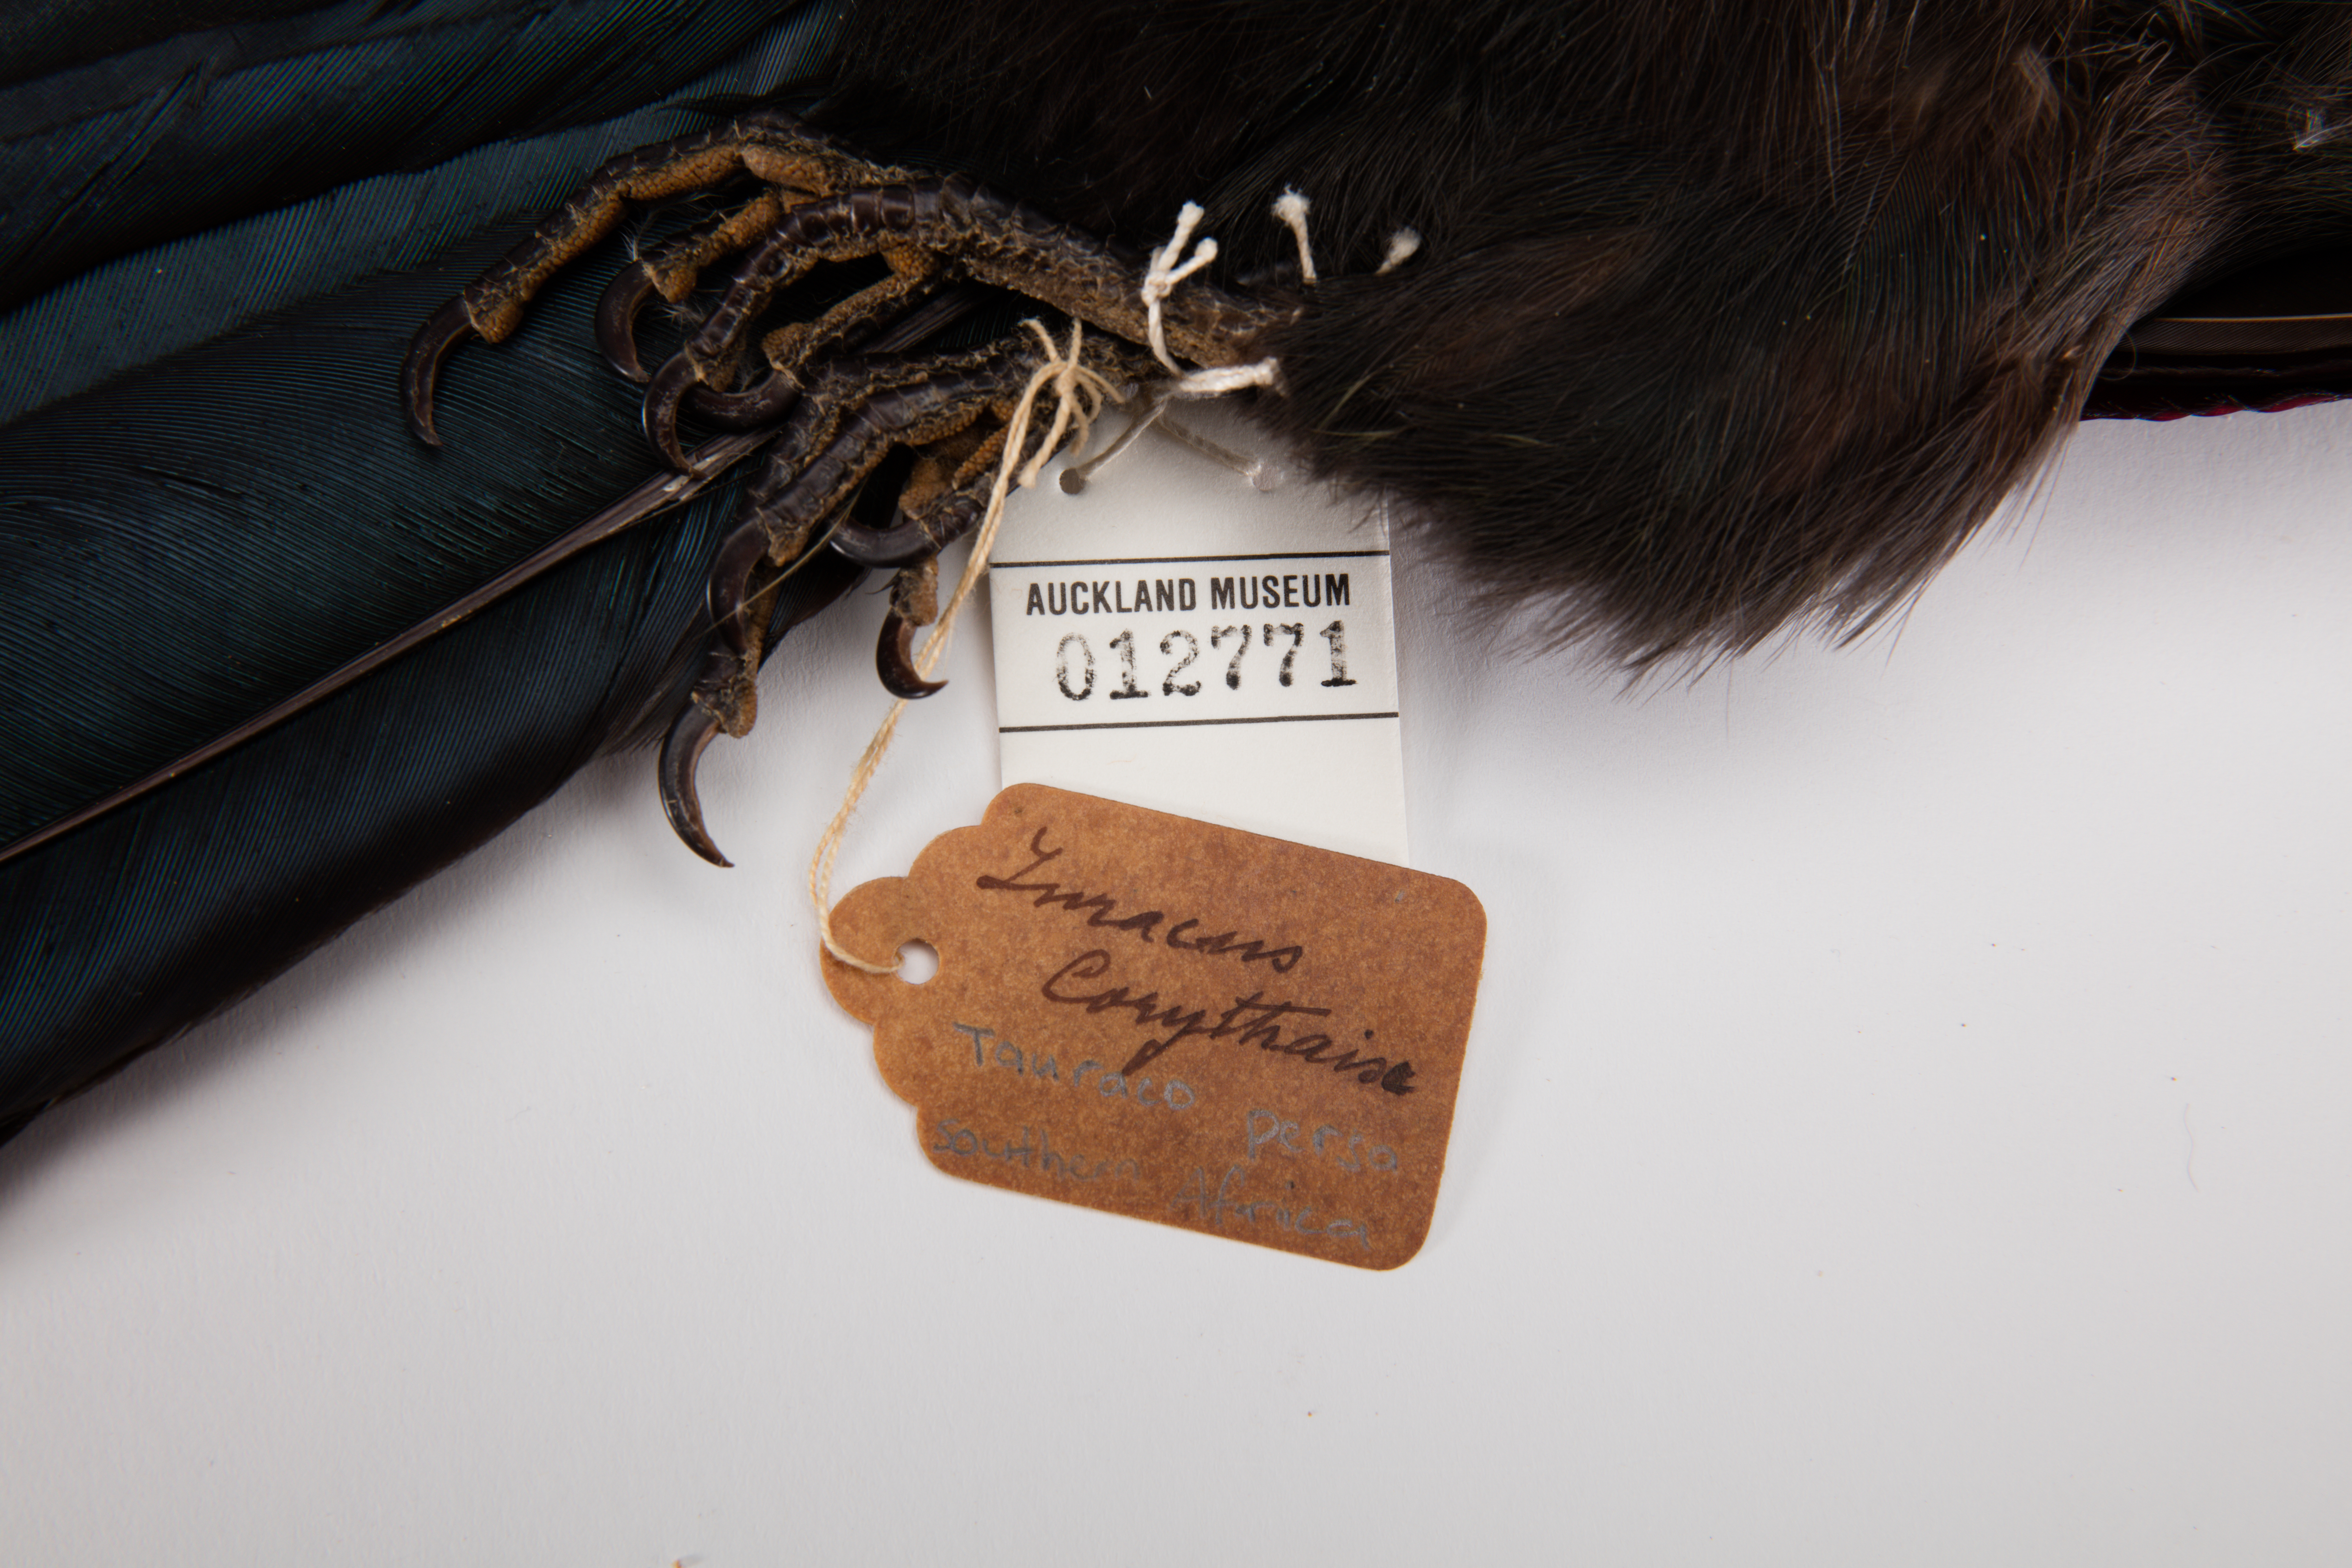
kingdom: Animalia
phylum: Chordata
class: Aves
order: Musophagiformes
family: Musophagidae
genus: Tauraco
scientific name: Tauraco persa
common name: Guinea turaco
